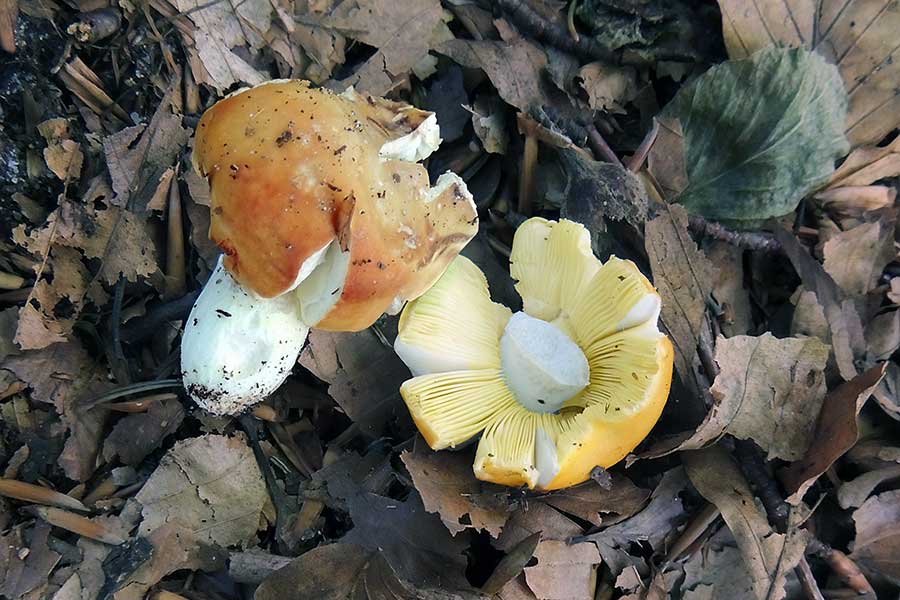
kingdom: Fungi
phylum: Basidiomycota
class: Agaricomycetes
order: Russulales
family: Russulaceae
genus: Russula
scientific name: Russula aurea
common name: gylden skørhat
